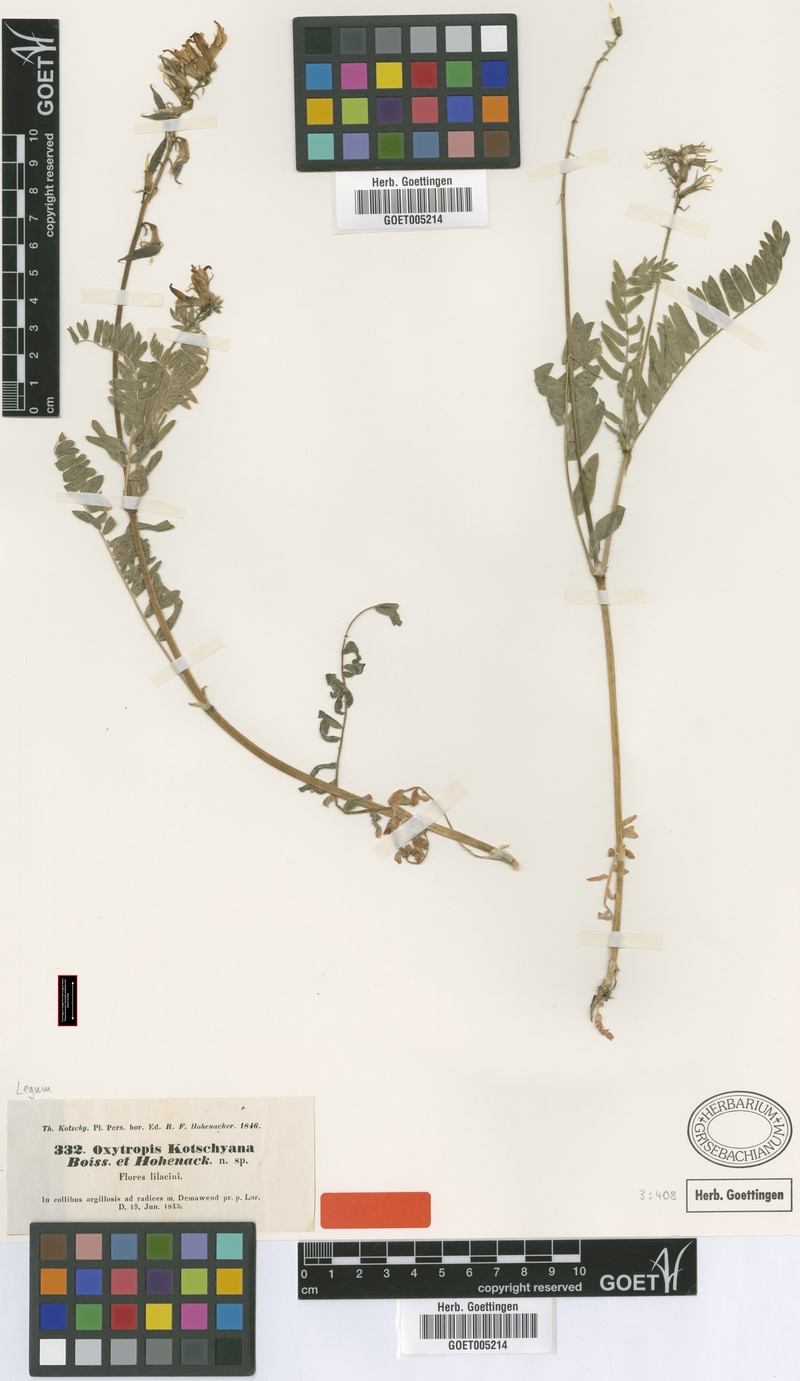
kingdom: Plantae
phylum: Tracheophyta
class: Magnoliopsida
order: Fabales
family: Fabaceae
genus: Oxytropis
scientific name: Oxytropis kotschyana
